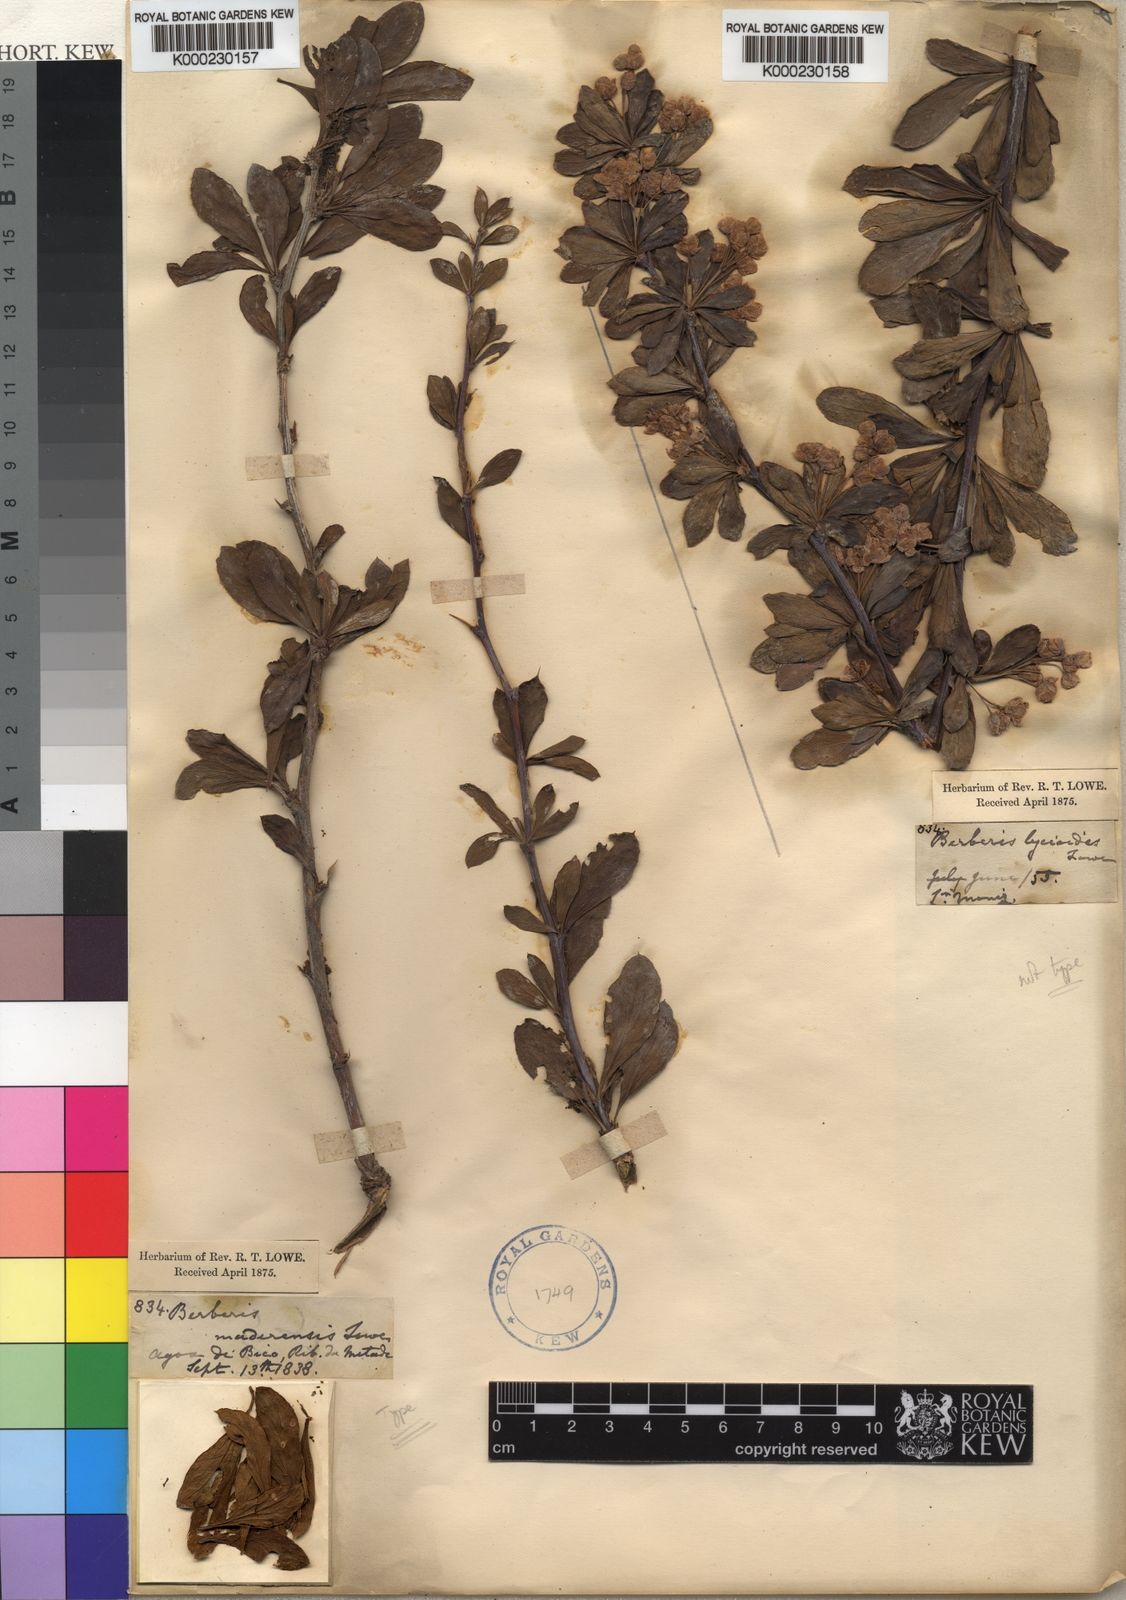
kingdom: Plantae
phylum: Tracheophyta
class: Magnoliopsida
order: Ranunculales
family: Berberidaceae
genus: Berberis
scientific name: Berberis maderensis
